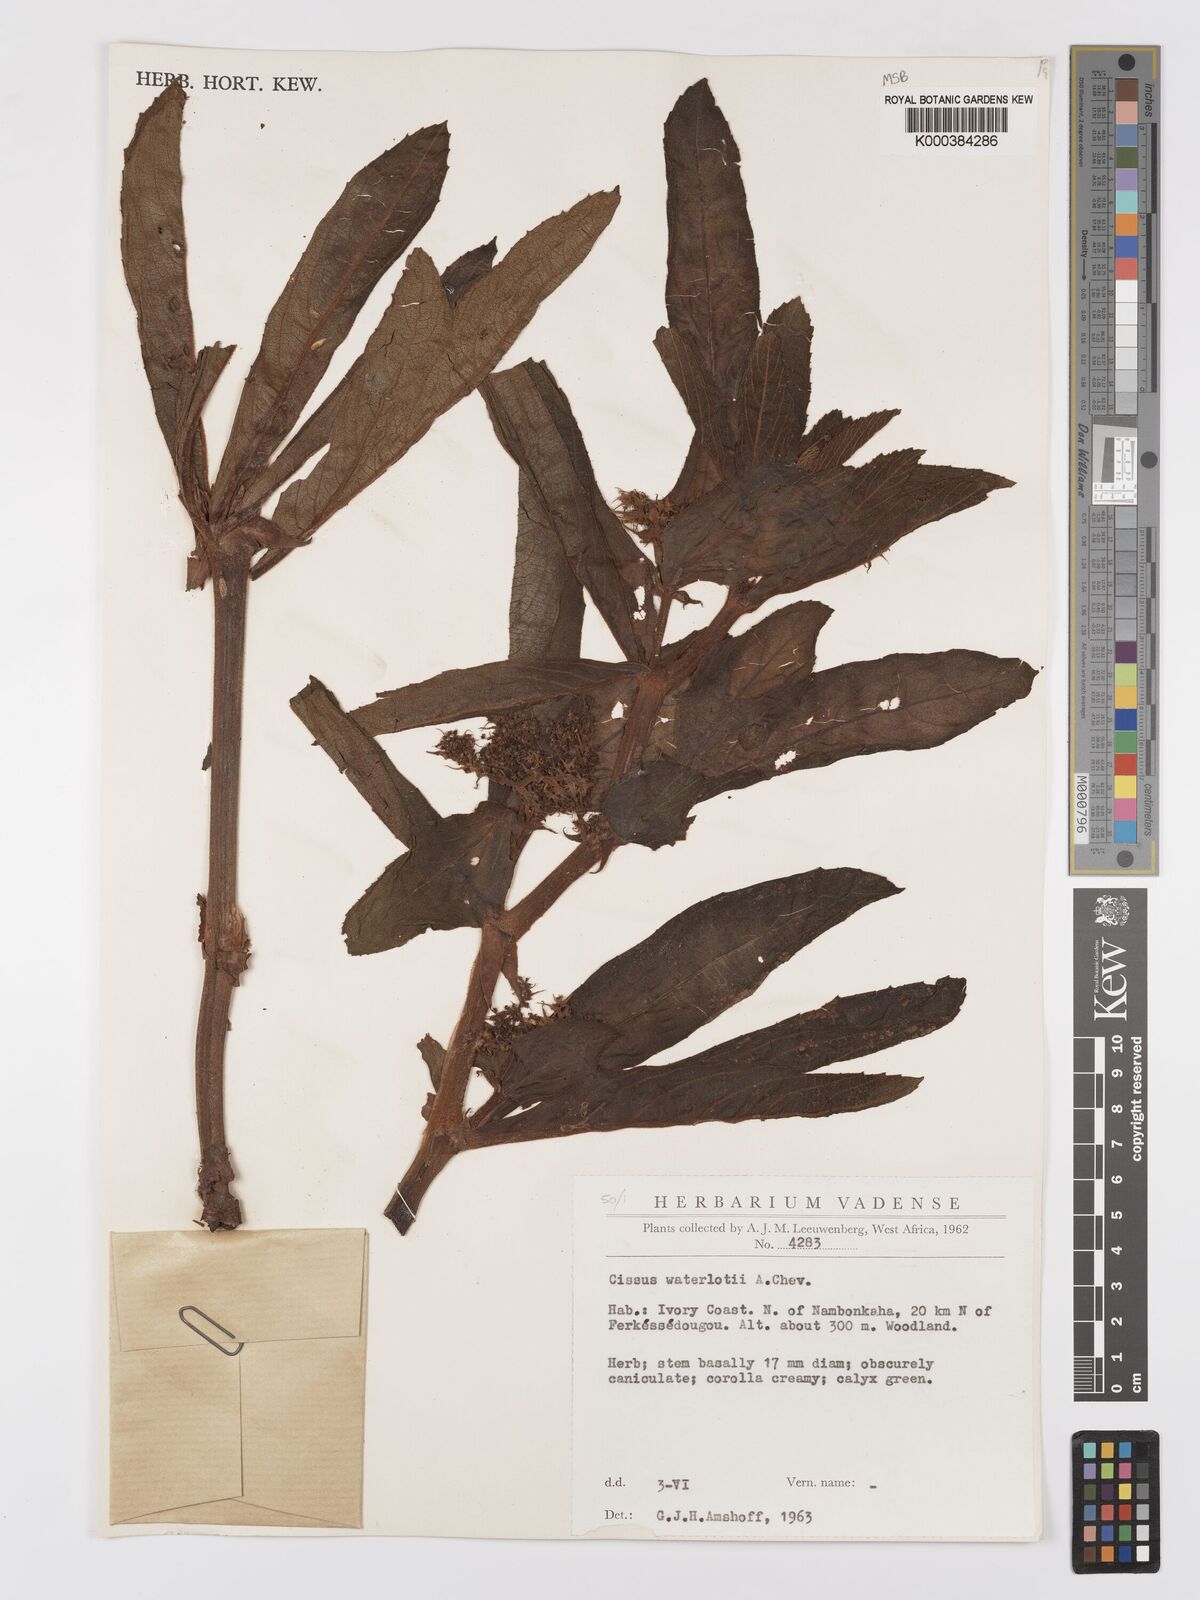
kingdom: Plantae
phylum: Tracheophyta
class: Magnoliopsida
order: Vitales
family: Vitaceae
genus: Cyphostemma
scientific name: Cyphostemma waterlotii
